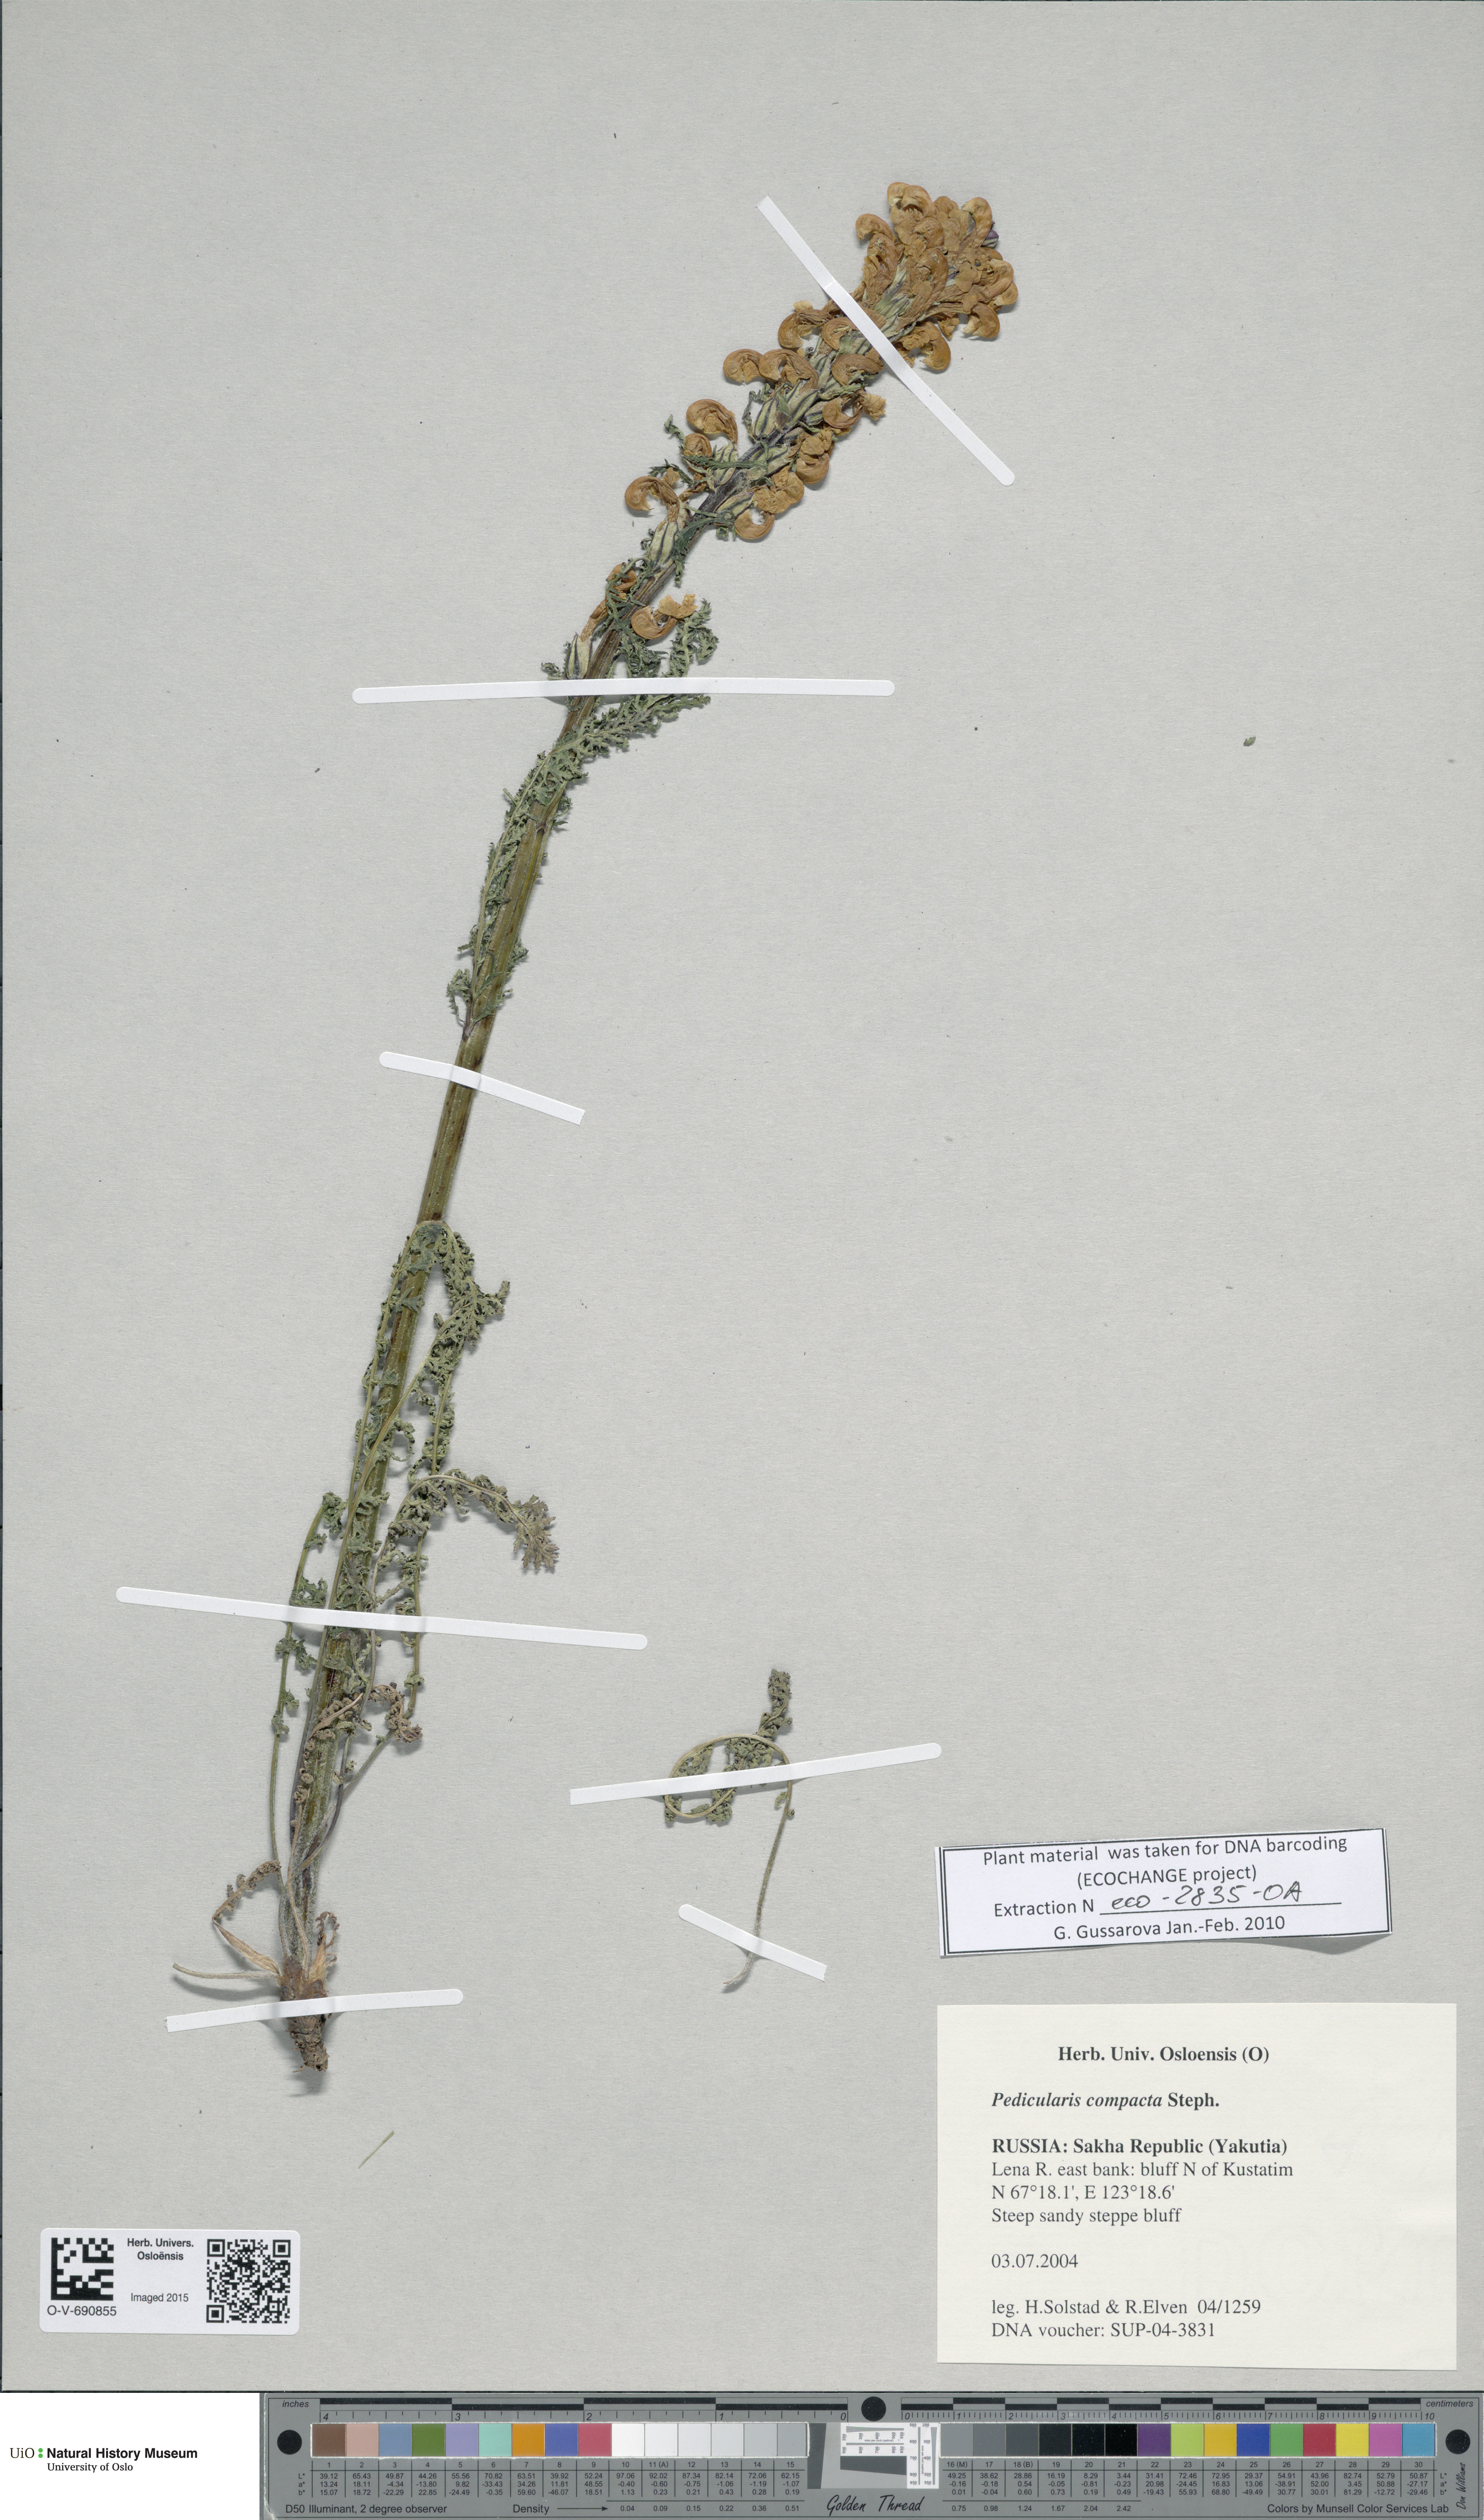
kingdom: Plantae
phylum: Tracheophyta
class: Magnoliopsida
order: Lamiales
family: Orobanchaceae
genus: Pedicularis
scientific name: Pedicularis compacta
